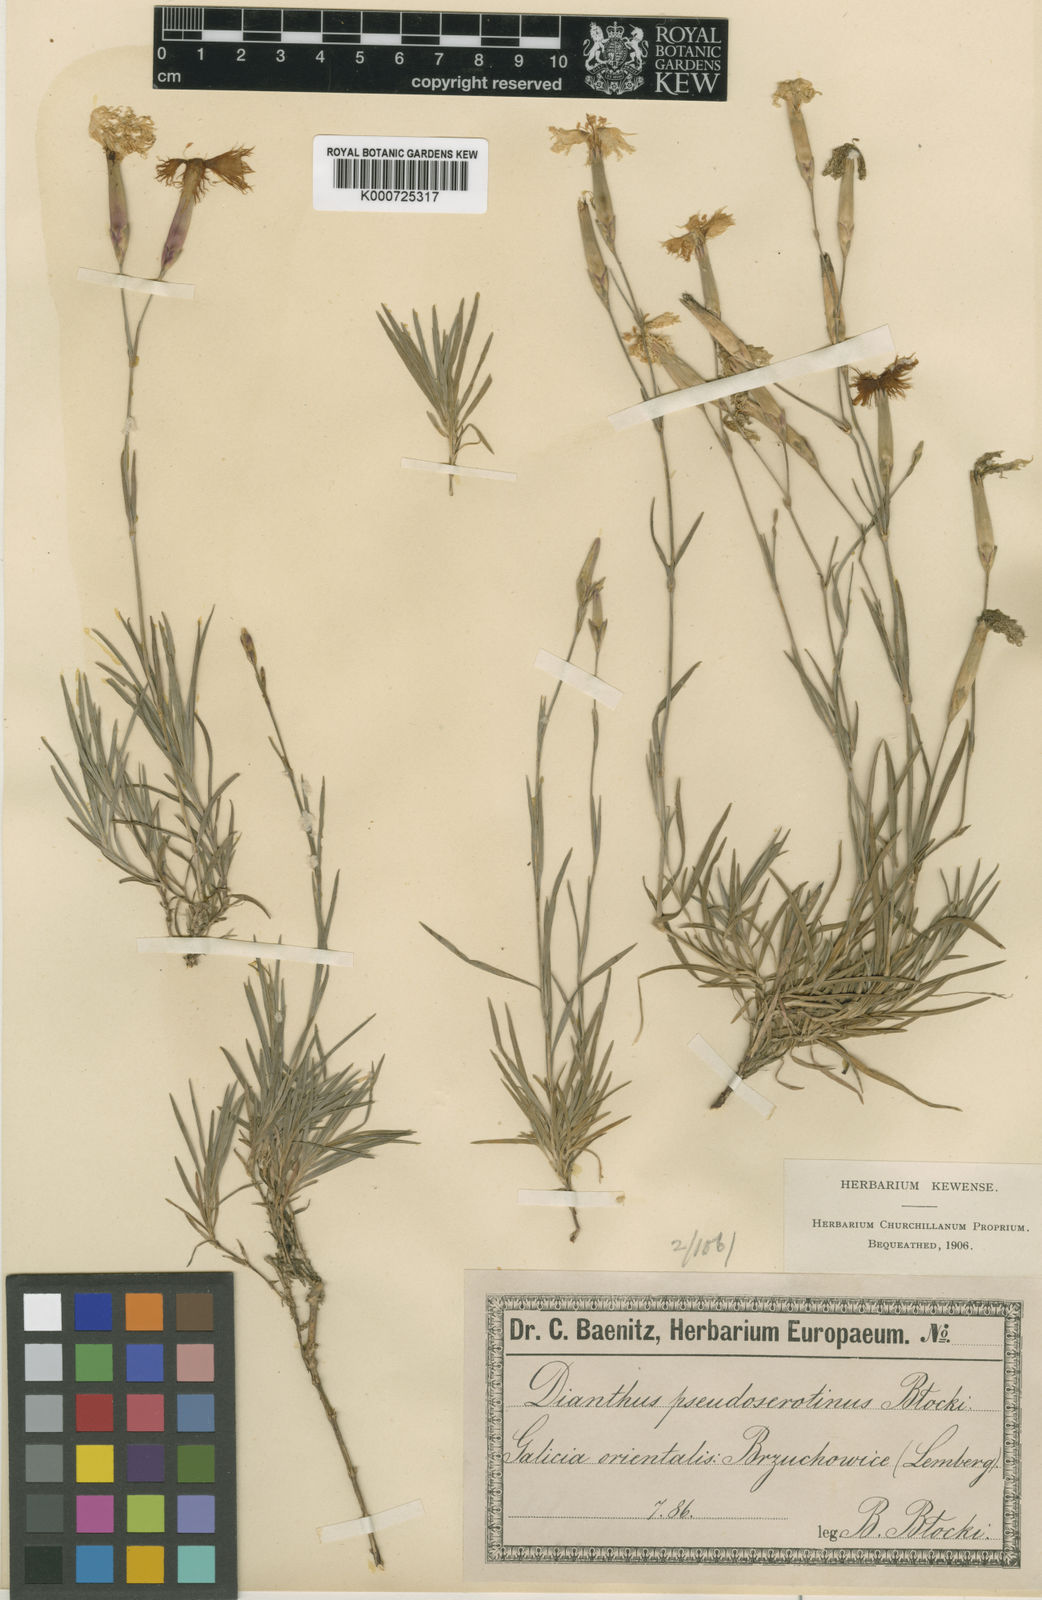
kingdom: Plantae
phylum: Tracheophyta
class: Magnoliopsida
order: Caryophyllales
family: Caryophyllaceae
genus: Dianthus
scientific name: Dianthus arenarius
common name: Stone pink
